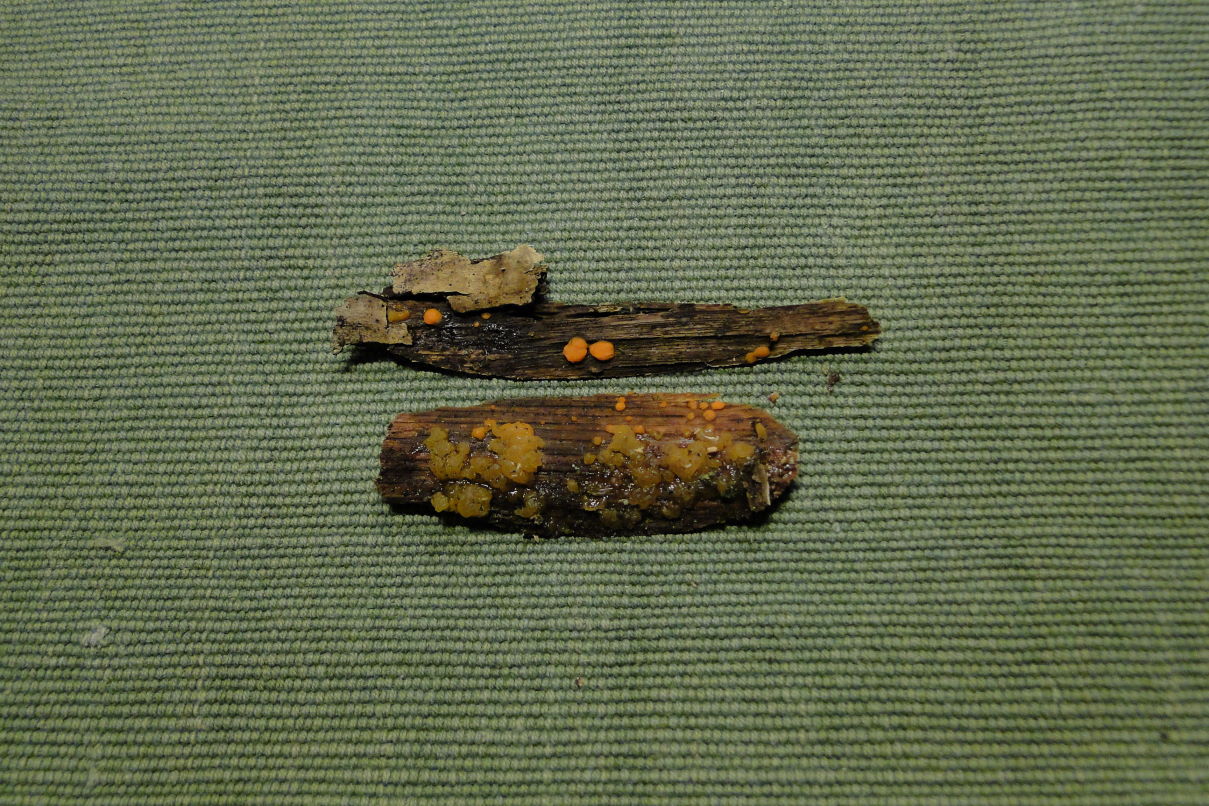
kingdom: Fungi
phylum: Basidiomycota
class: Dacrymycetes
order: Dacrymycetales
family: Dacrymycetaceae
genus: Dacrymyces
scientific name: Dacrymyces stillatus
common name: almindelig tåresvamp
